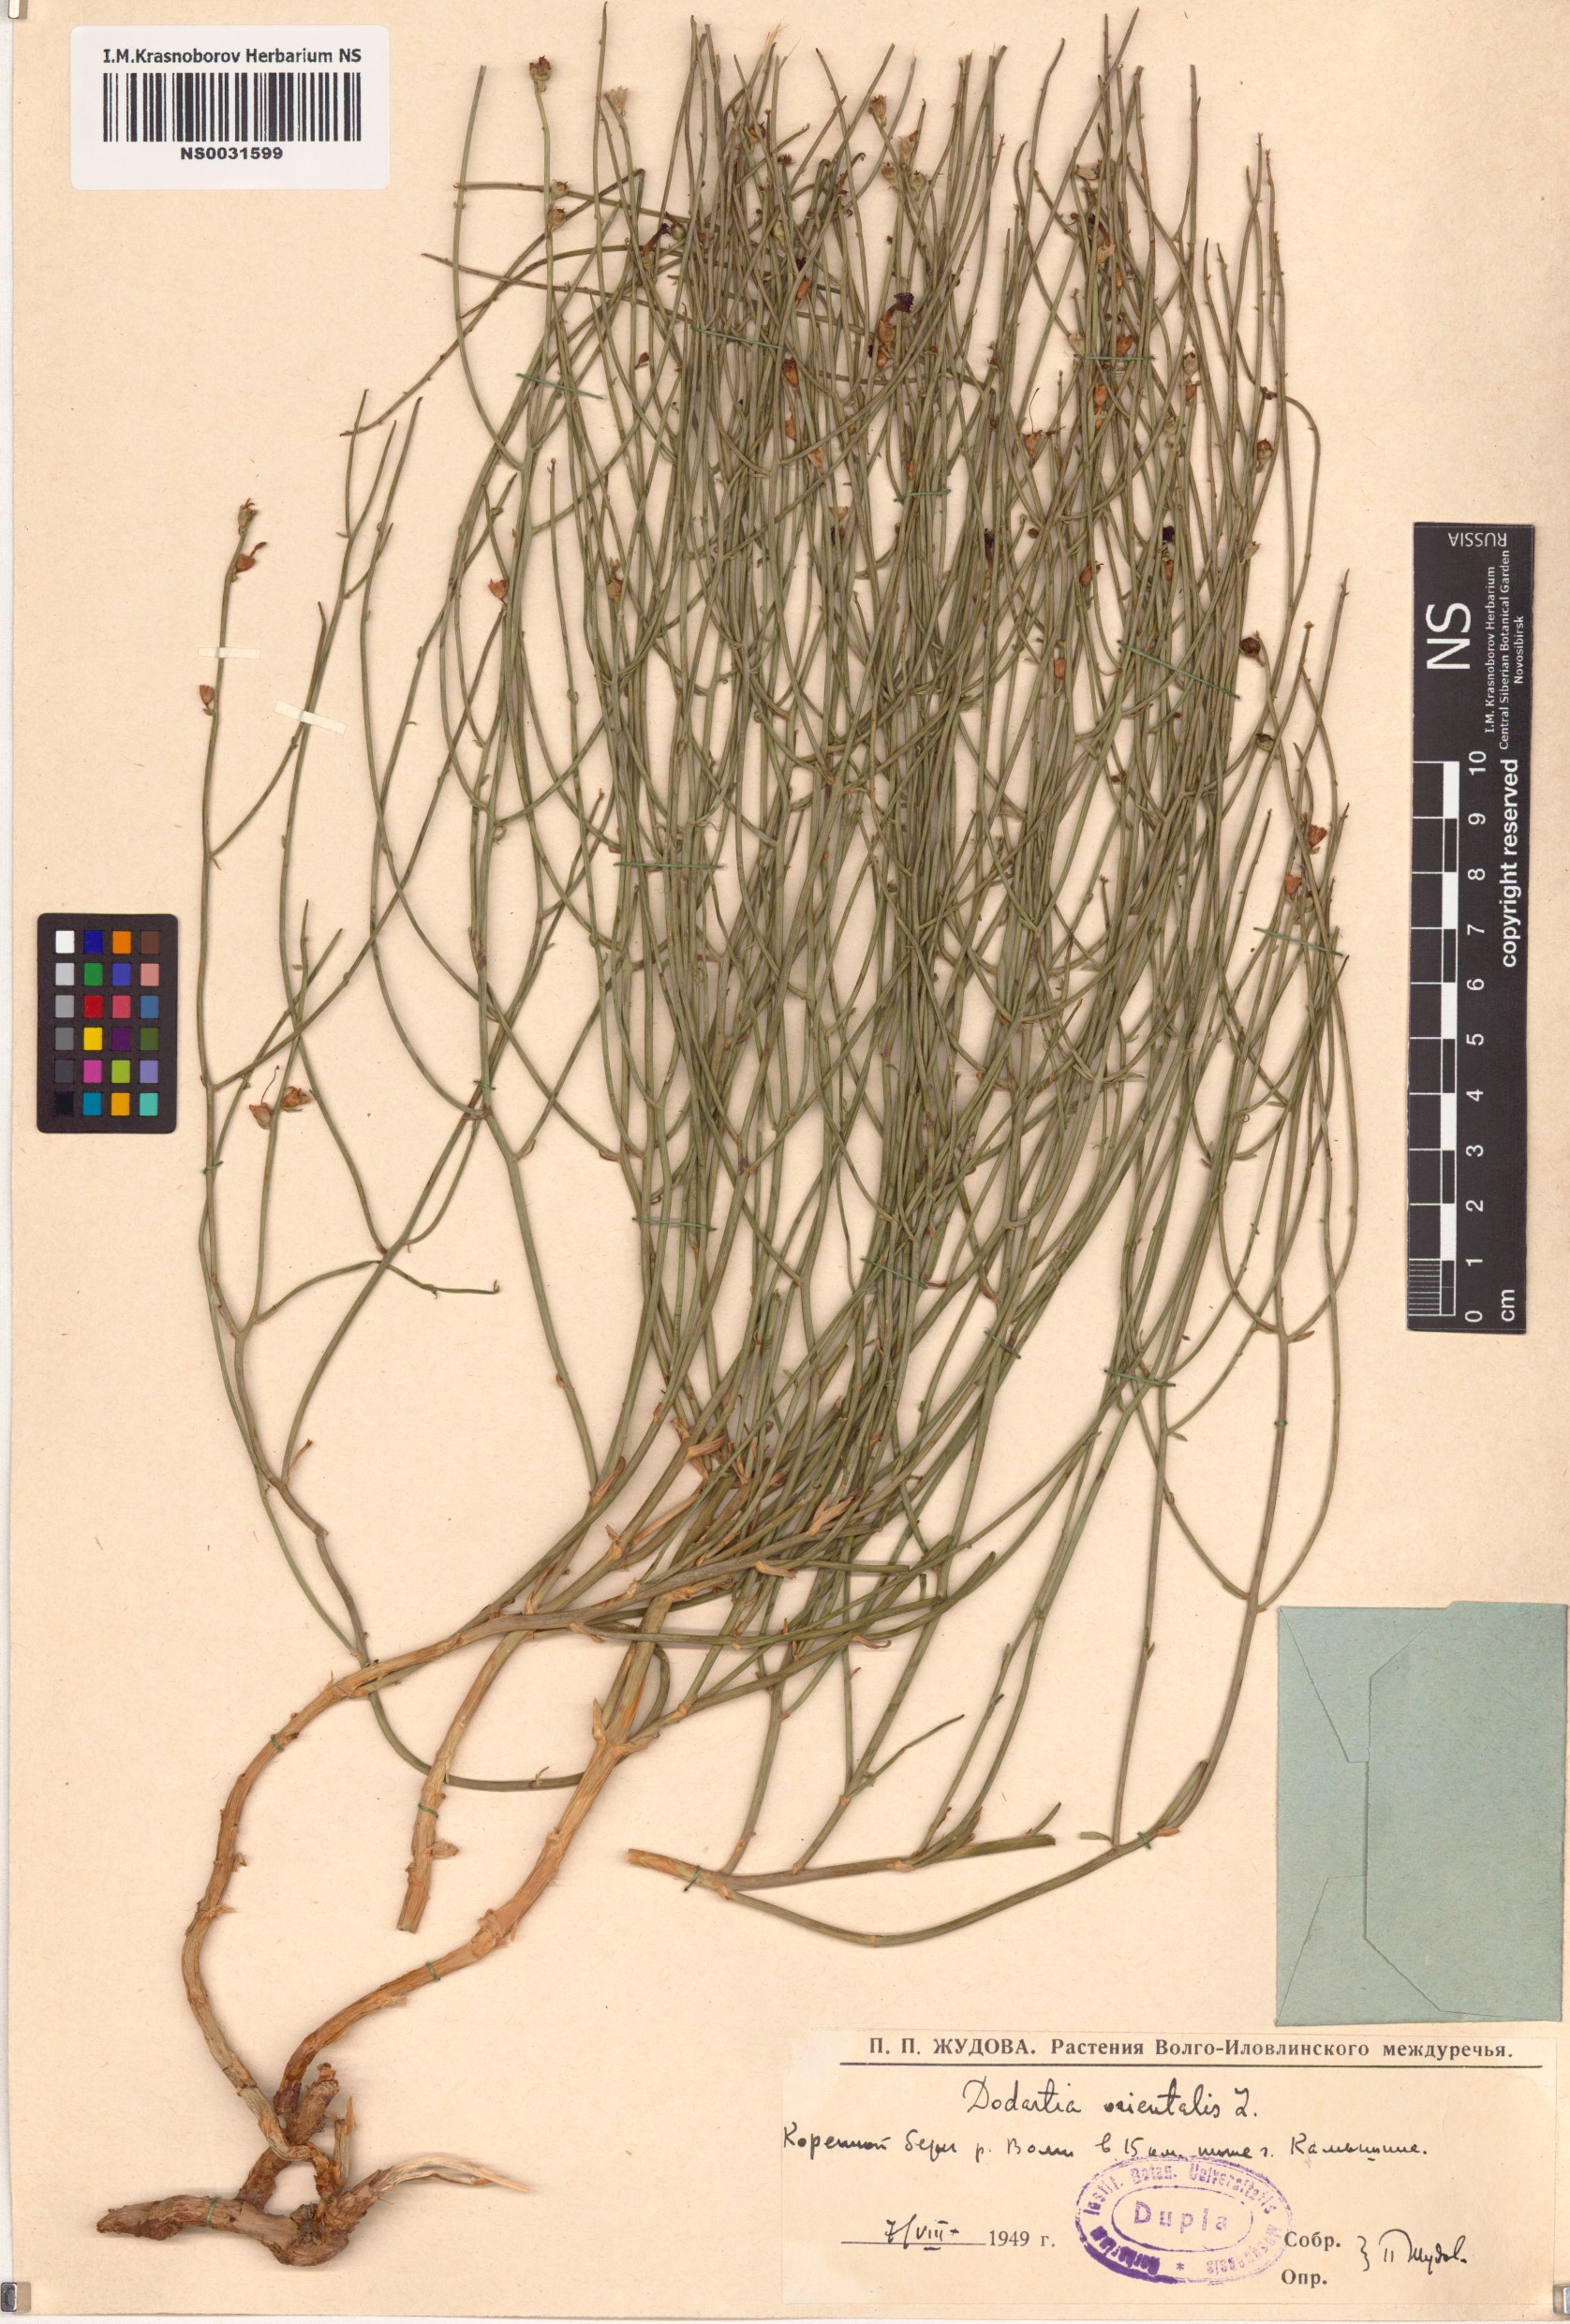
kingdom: Plantae
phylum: Tracheophyta
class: Magnoliopsida
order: Lamiales
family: Mazaceae
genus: Dodartia
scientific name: Dodartia orientalis
